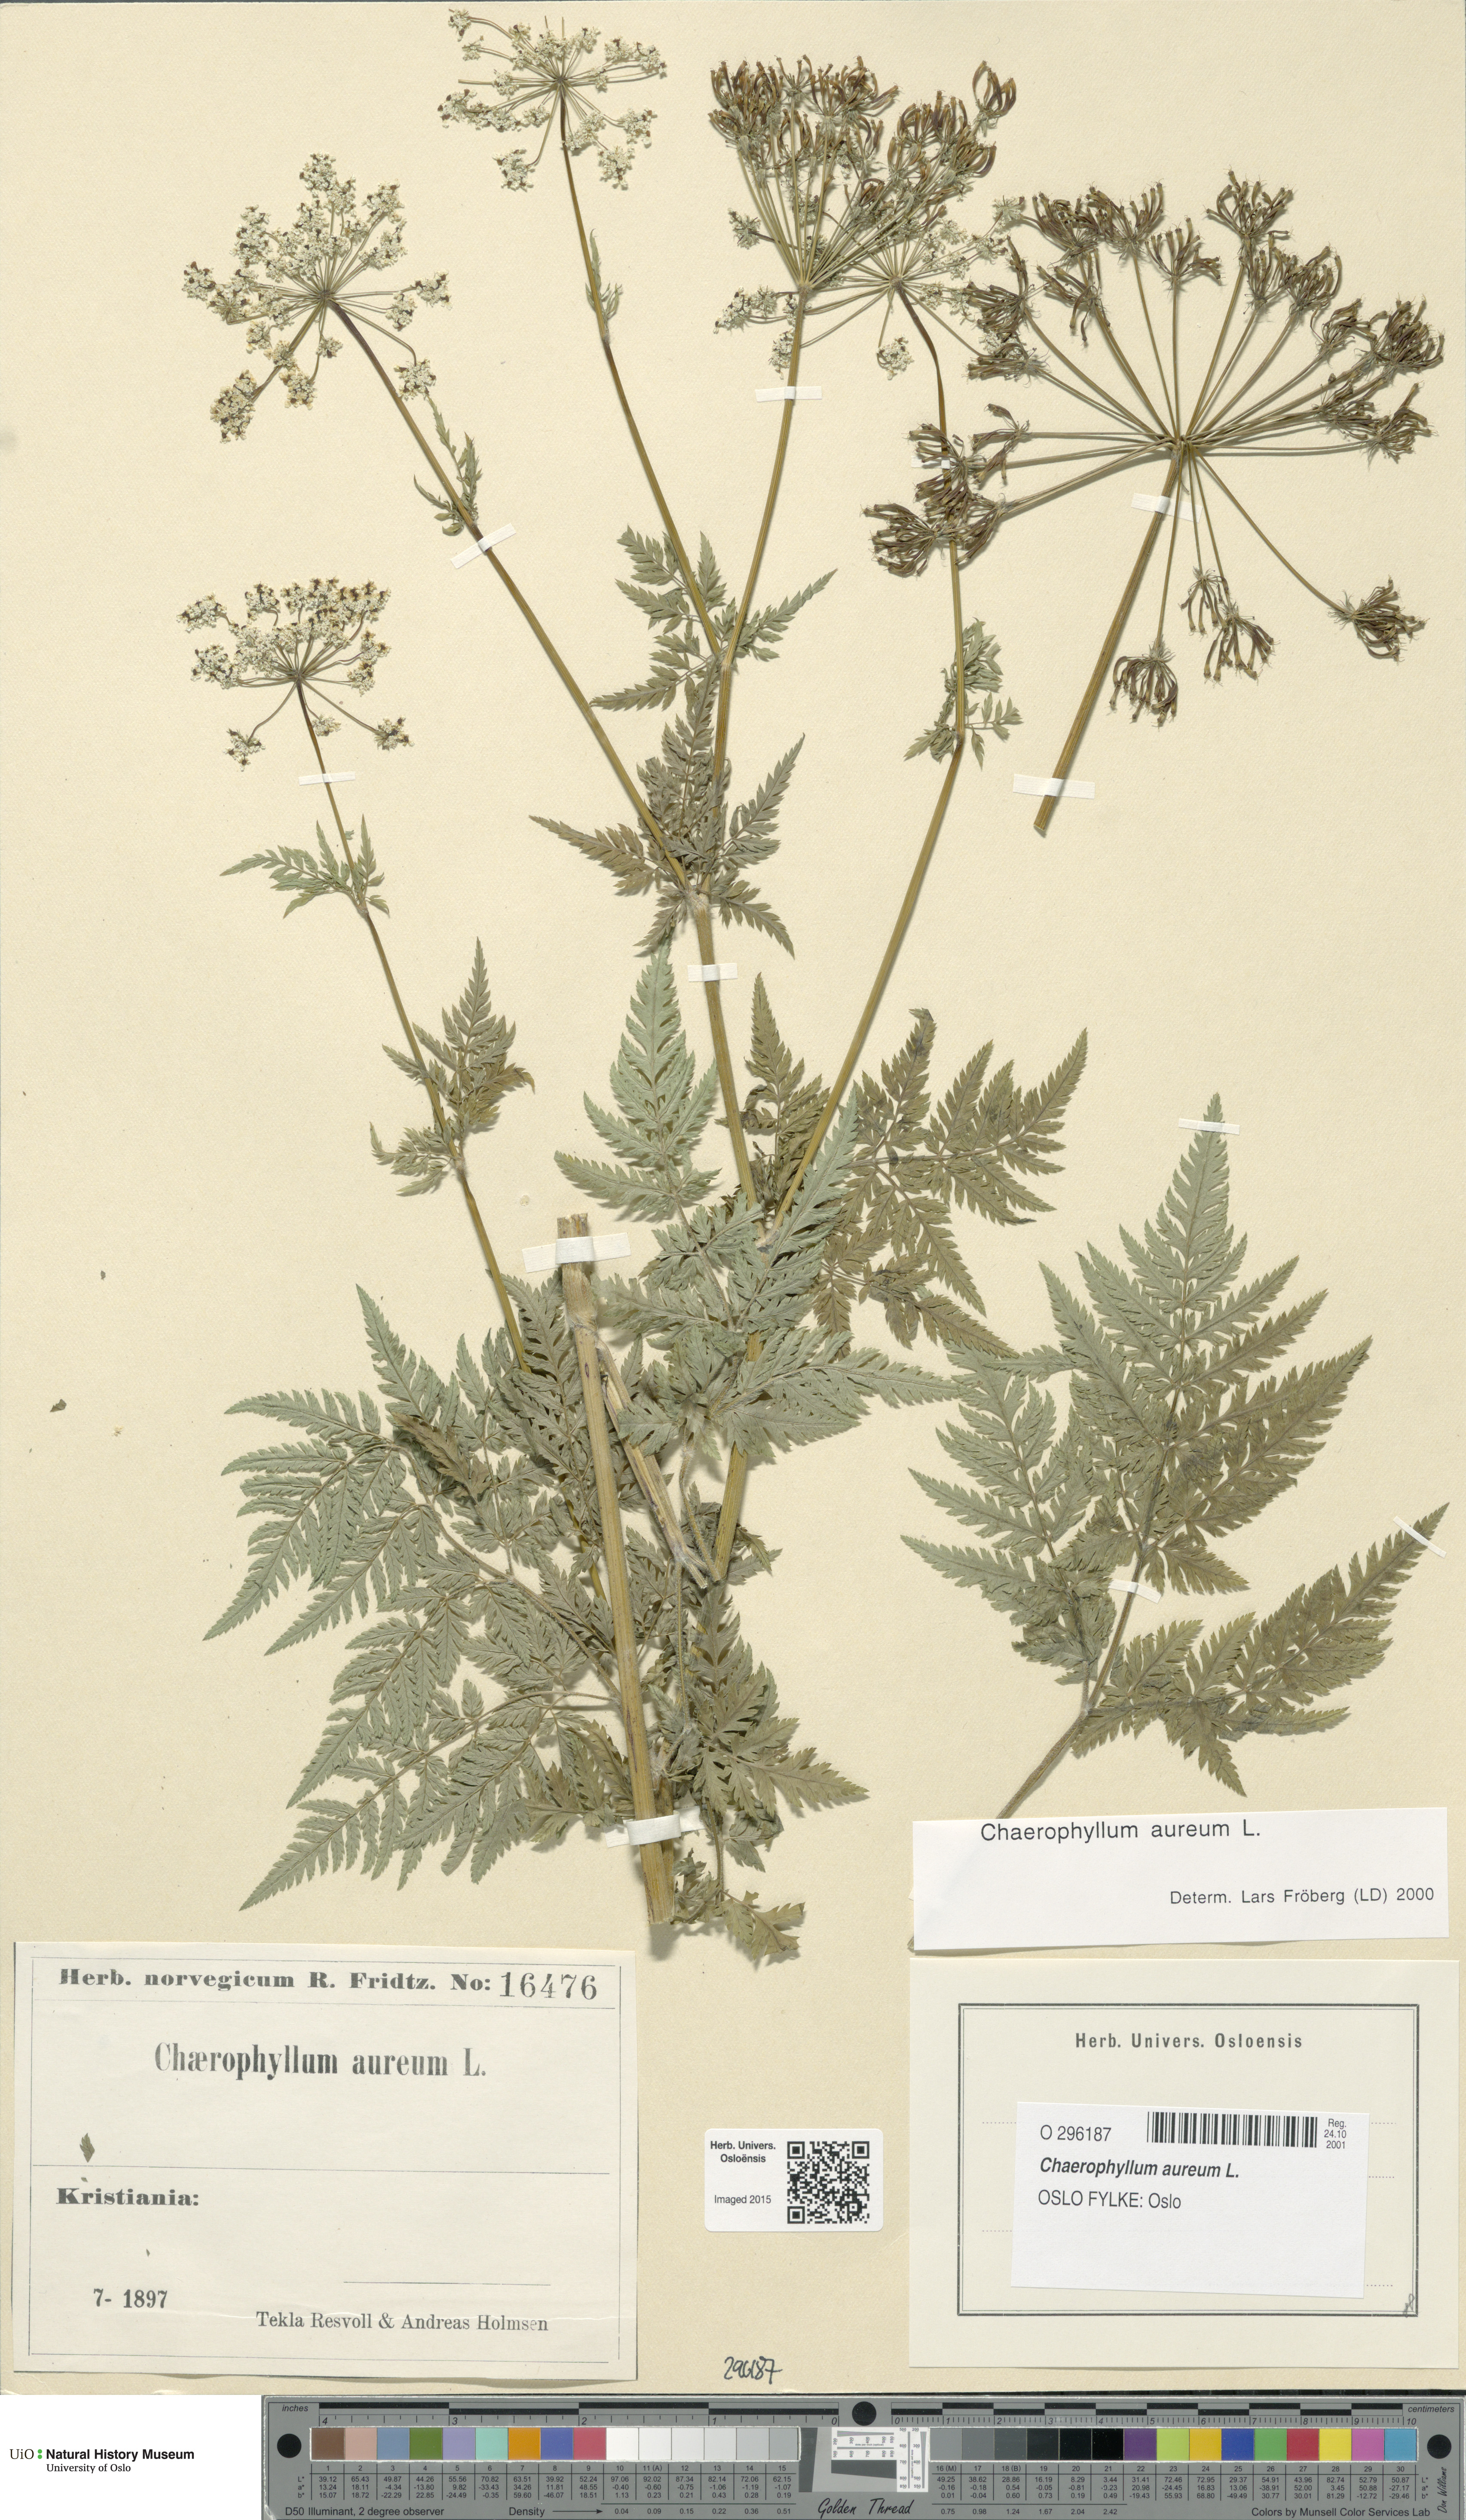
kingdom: Plantae
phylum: Tracheophyta
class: Magnoliopsida
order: Apiales
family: Apiaceae
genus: Chaerophyllum
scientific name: Chaerophyllum aureum
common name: Golden chervil
